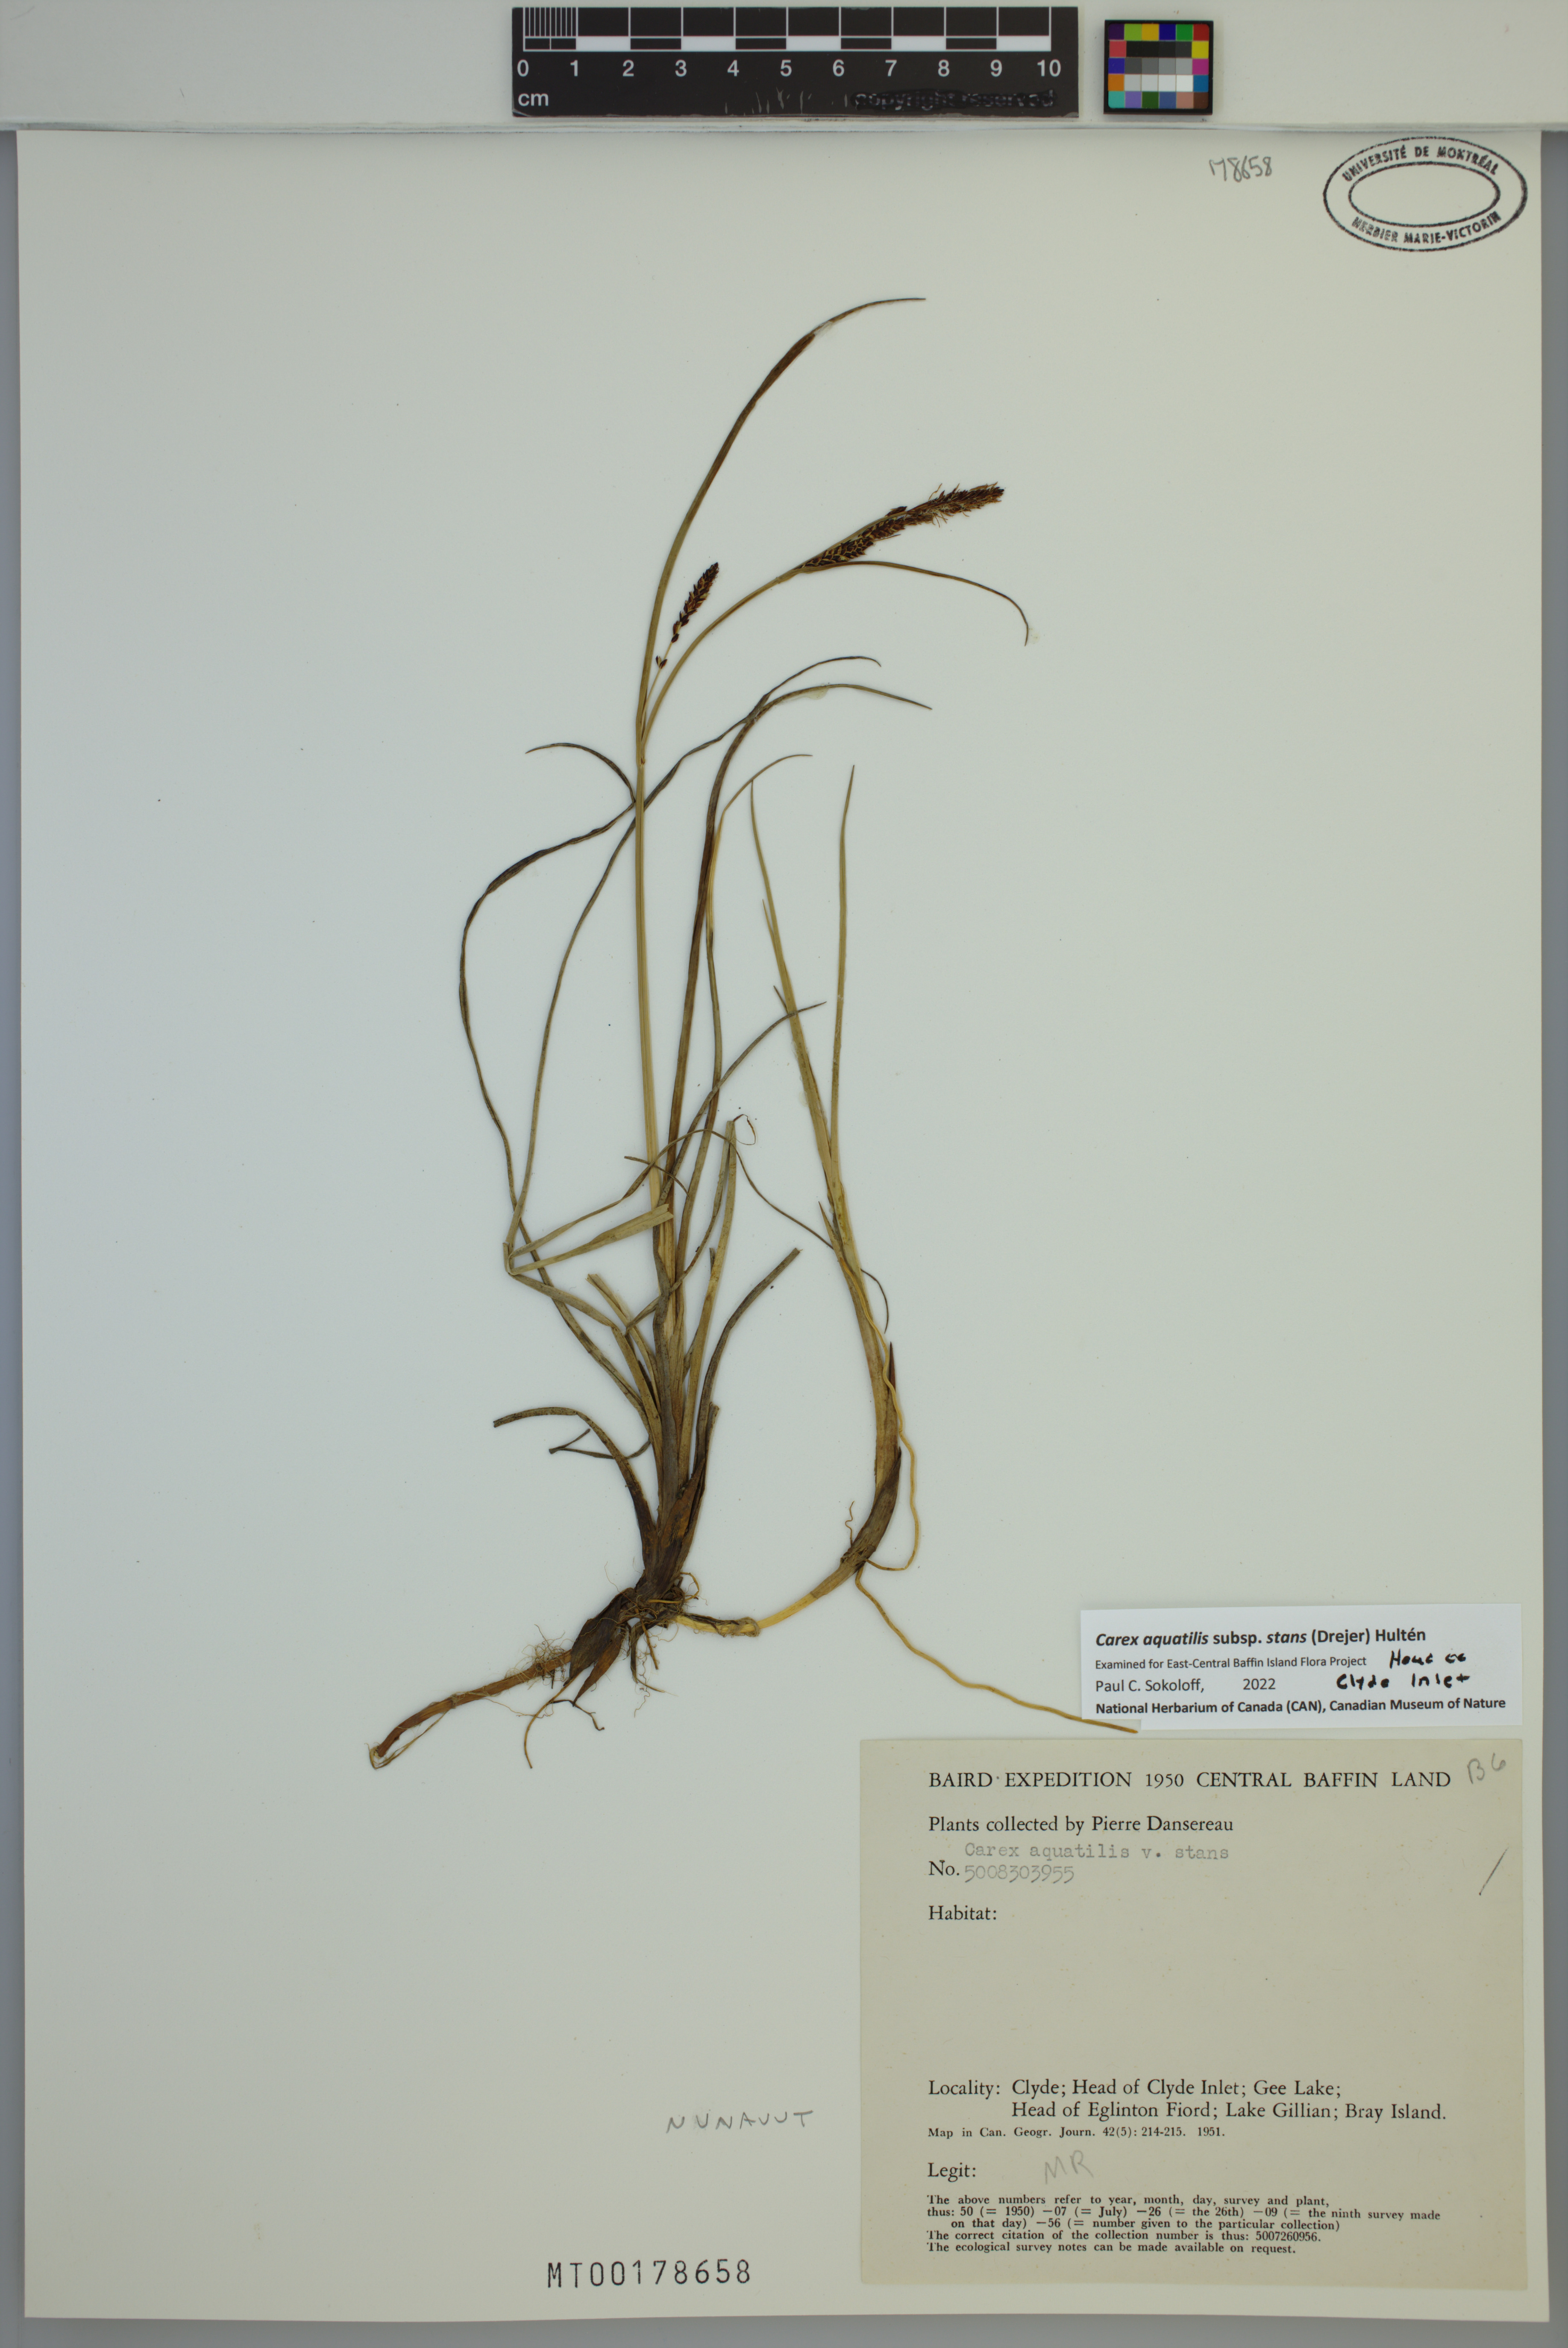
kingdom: Plantae
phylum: Tracheophyta
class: Liliopsida
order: Poales
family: Cyperaceae
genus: Carex
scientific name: Carex aquatilis
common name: Water sedge
